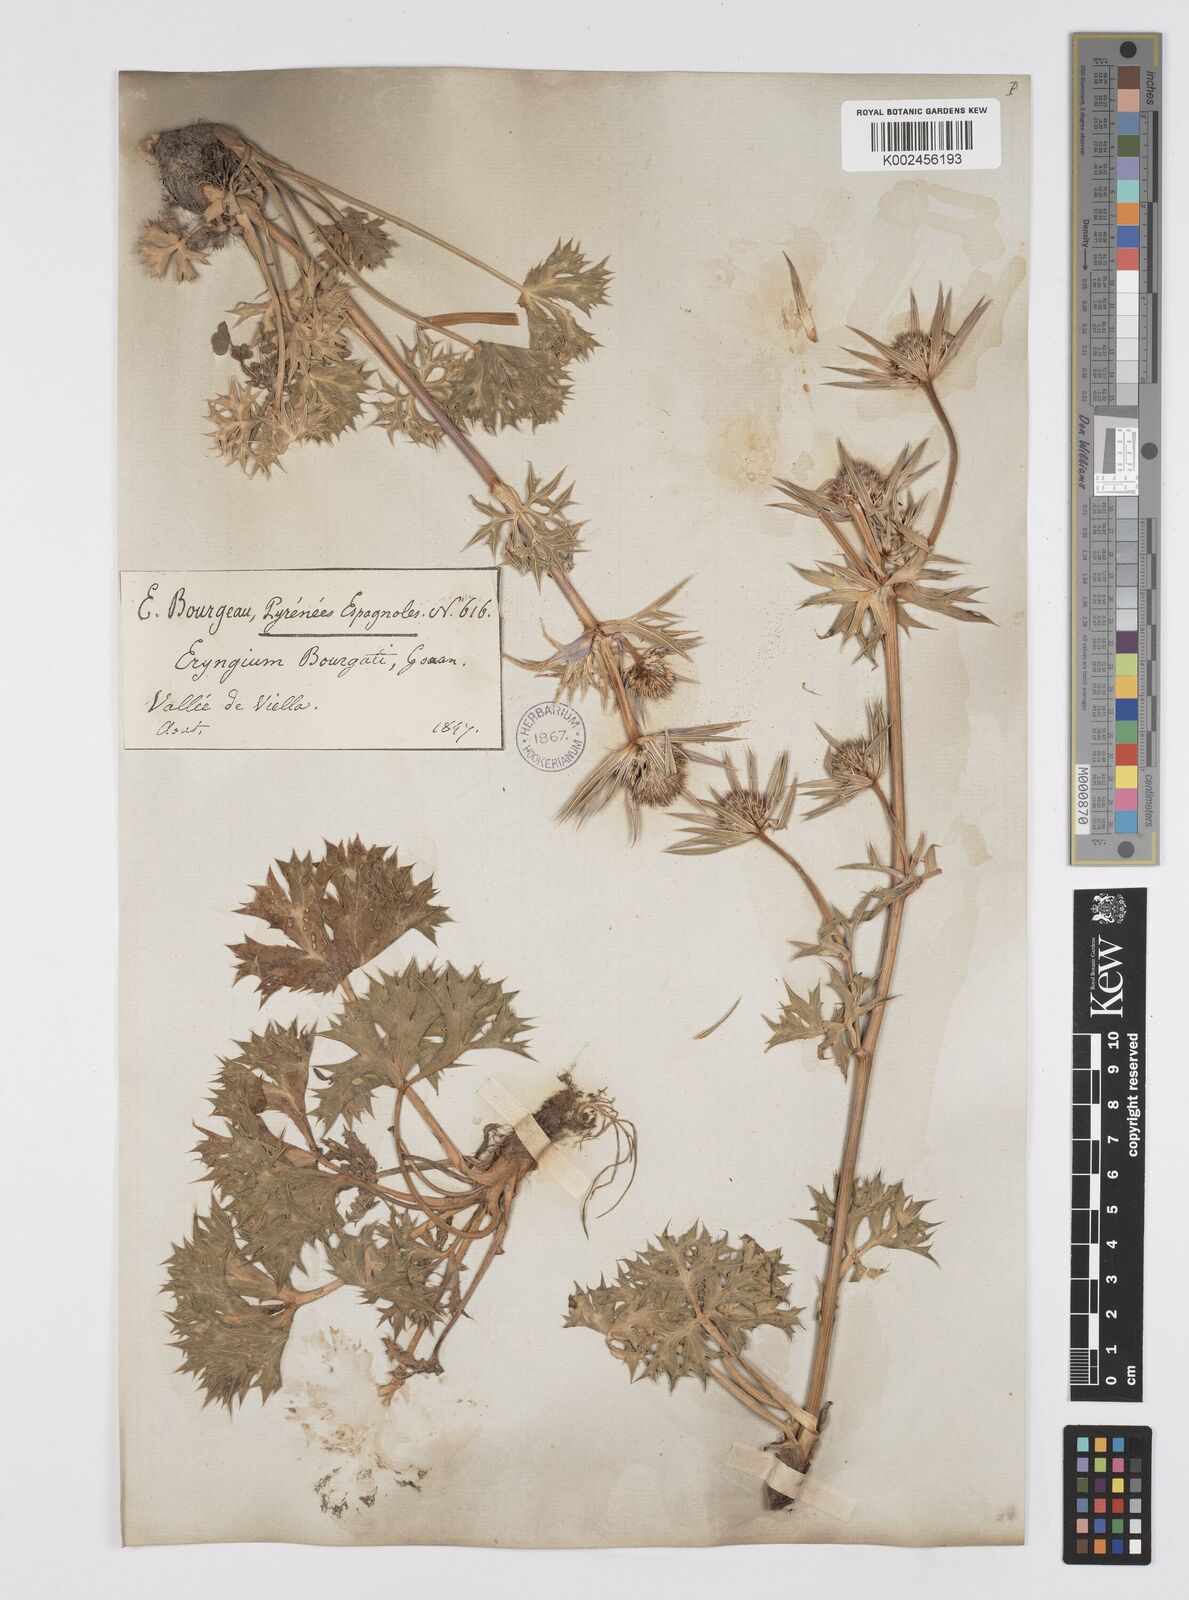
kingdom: Plantae
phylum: Tracheophyta
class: Magnoliopsida
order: Apiales
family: Apiaceae
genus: Eryngium
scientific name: Eryngium bourgatii
